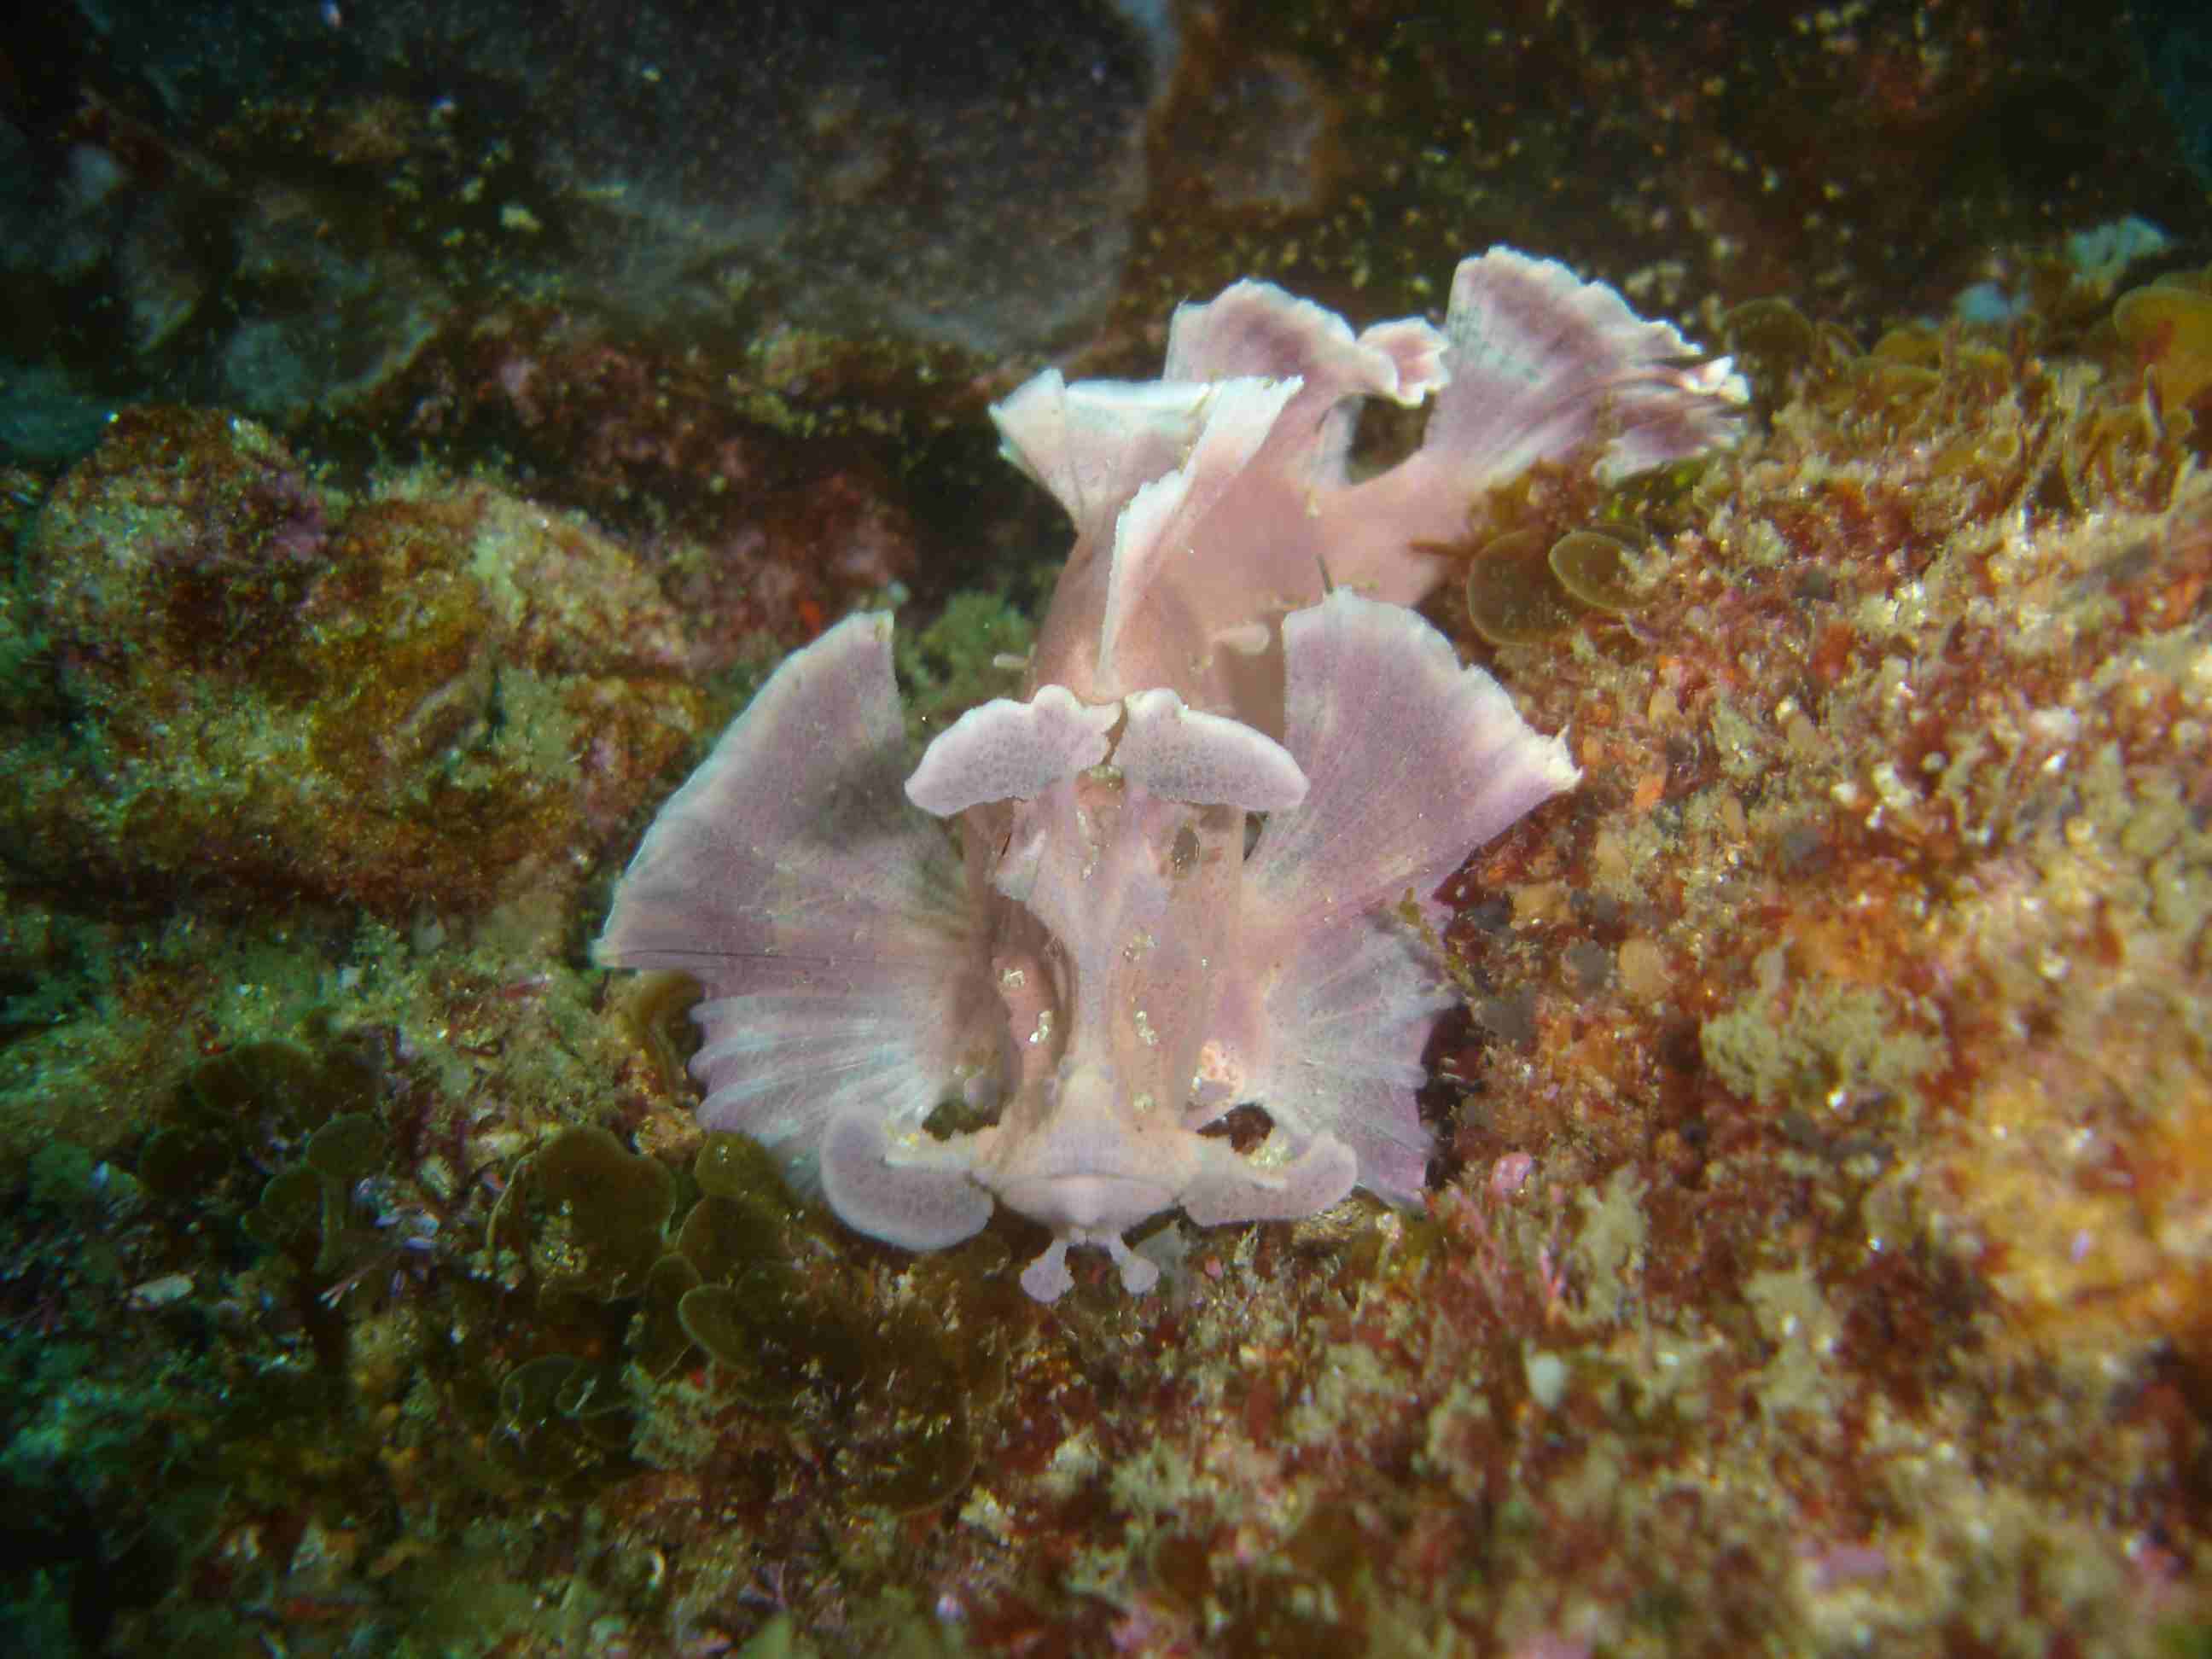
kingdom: Animalia
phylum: Chordata
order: Scorpaeniformes
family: Scorpaenidae
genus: Rhinopias
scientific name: Rhinopias eschmeyeri
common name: Eschmeyer's scorpionfish
